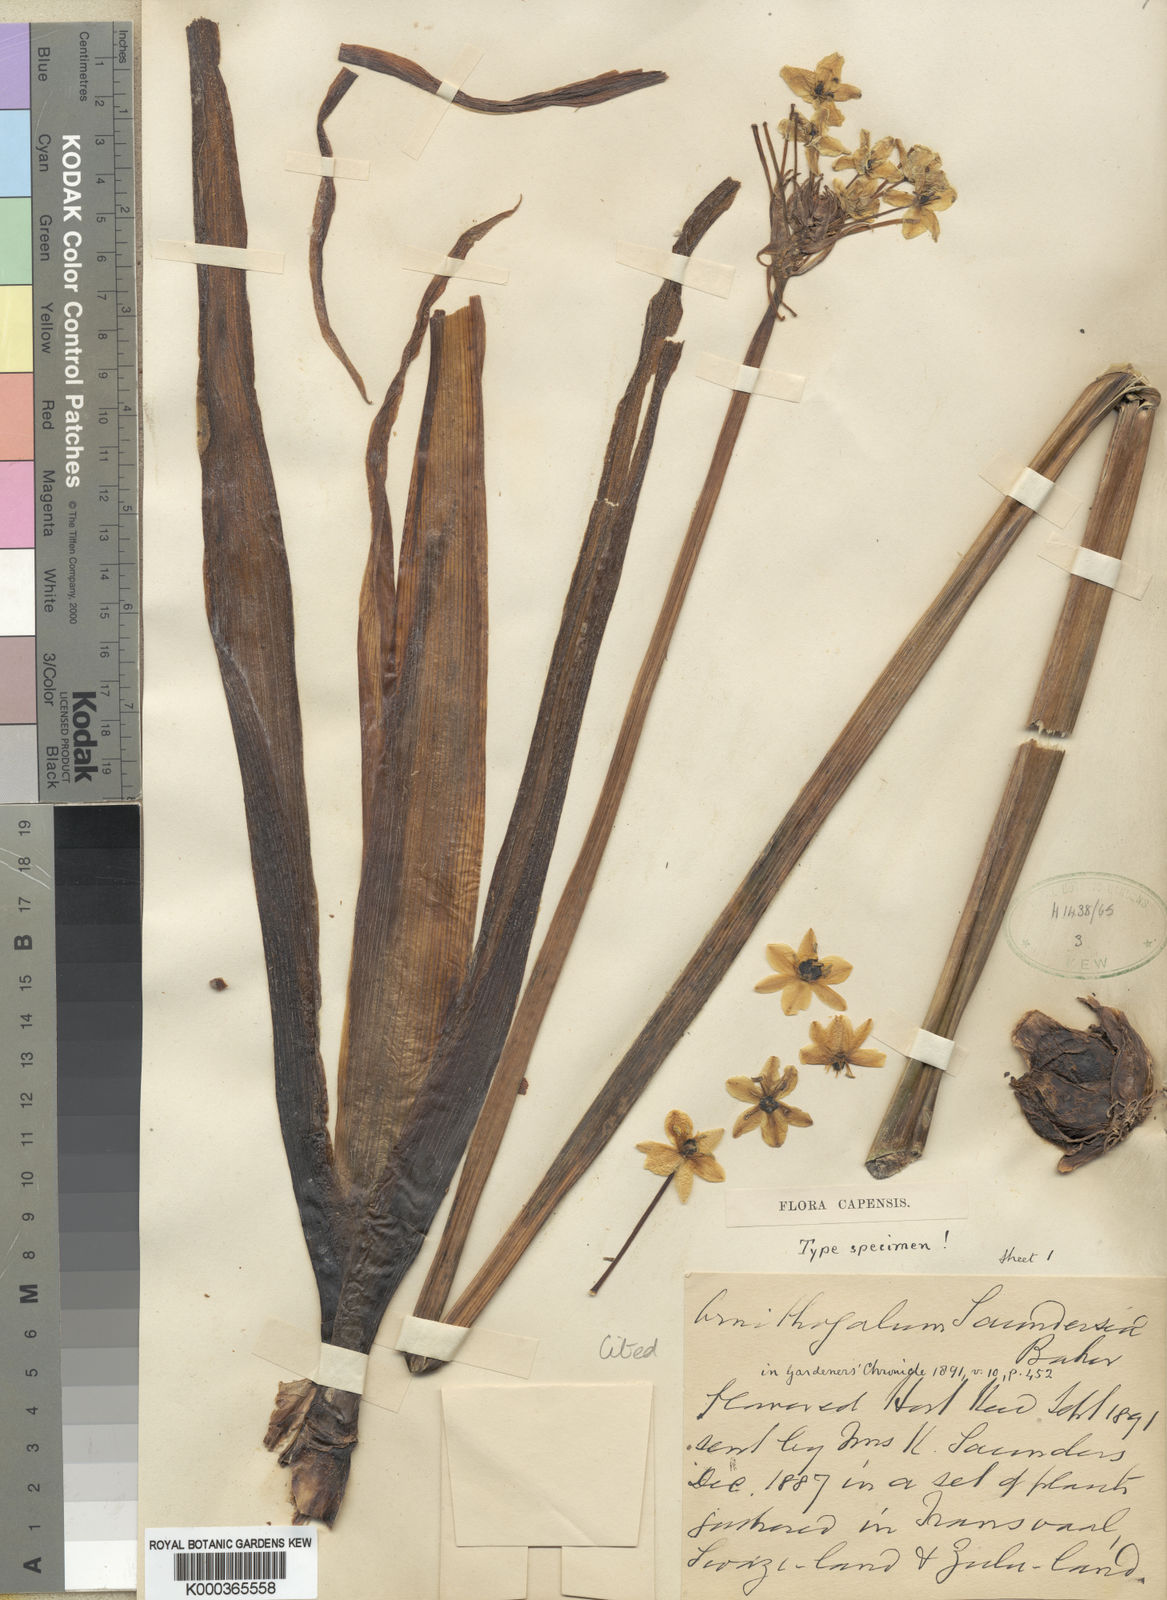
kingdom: Plantae
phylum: Tracheophyta
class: Liliopsida
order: Asparagales
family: Asparagaceae
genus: Ornithogalum
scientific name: Ornithogalum saundersiae
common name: Giant chincherinchee
